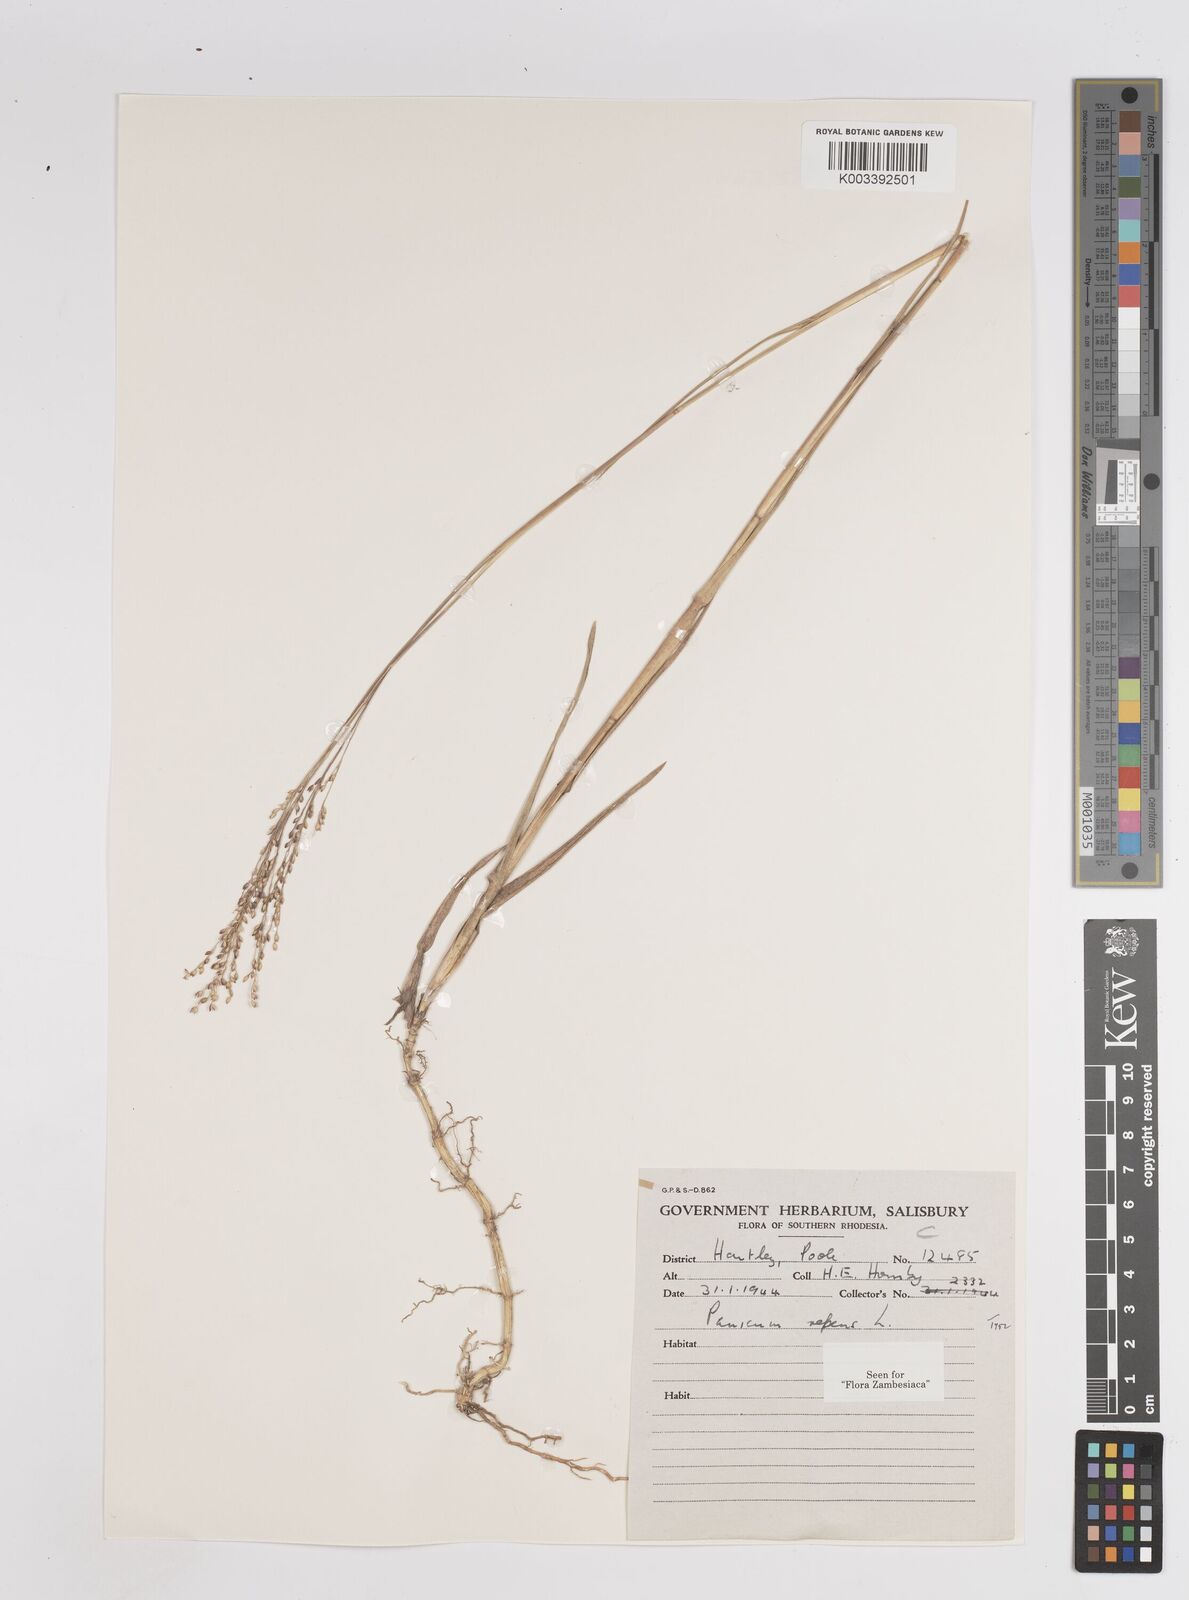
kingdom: Plantae
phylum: Tracheophyta
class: Liliopsida
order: Poales
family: Poaceae
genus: Panicum
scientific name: Panicum repens
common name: Torpedo grass
